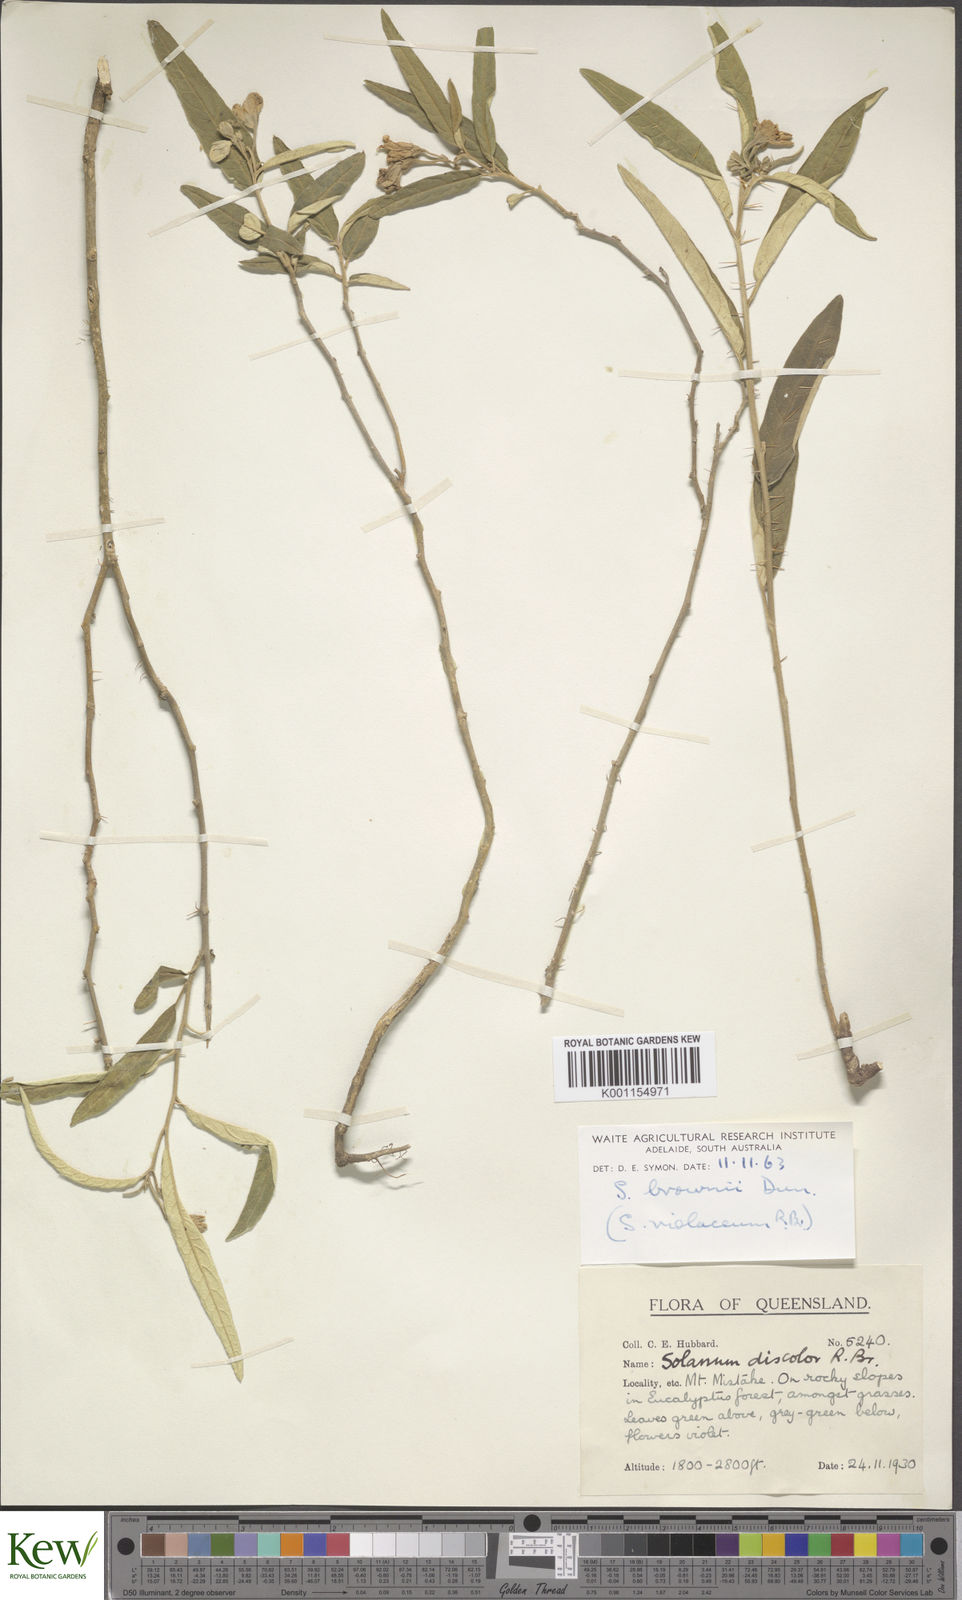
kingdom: Plantae
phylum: Tracheophyta
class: Magnoliopsida
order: Solanales
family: Solanaceae
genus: Solanum
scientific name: Solanum brownii
